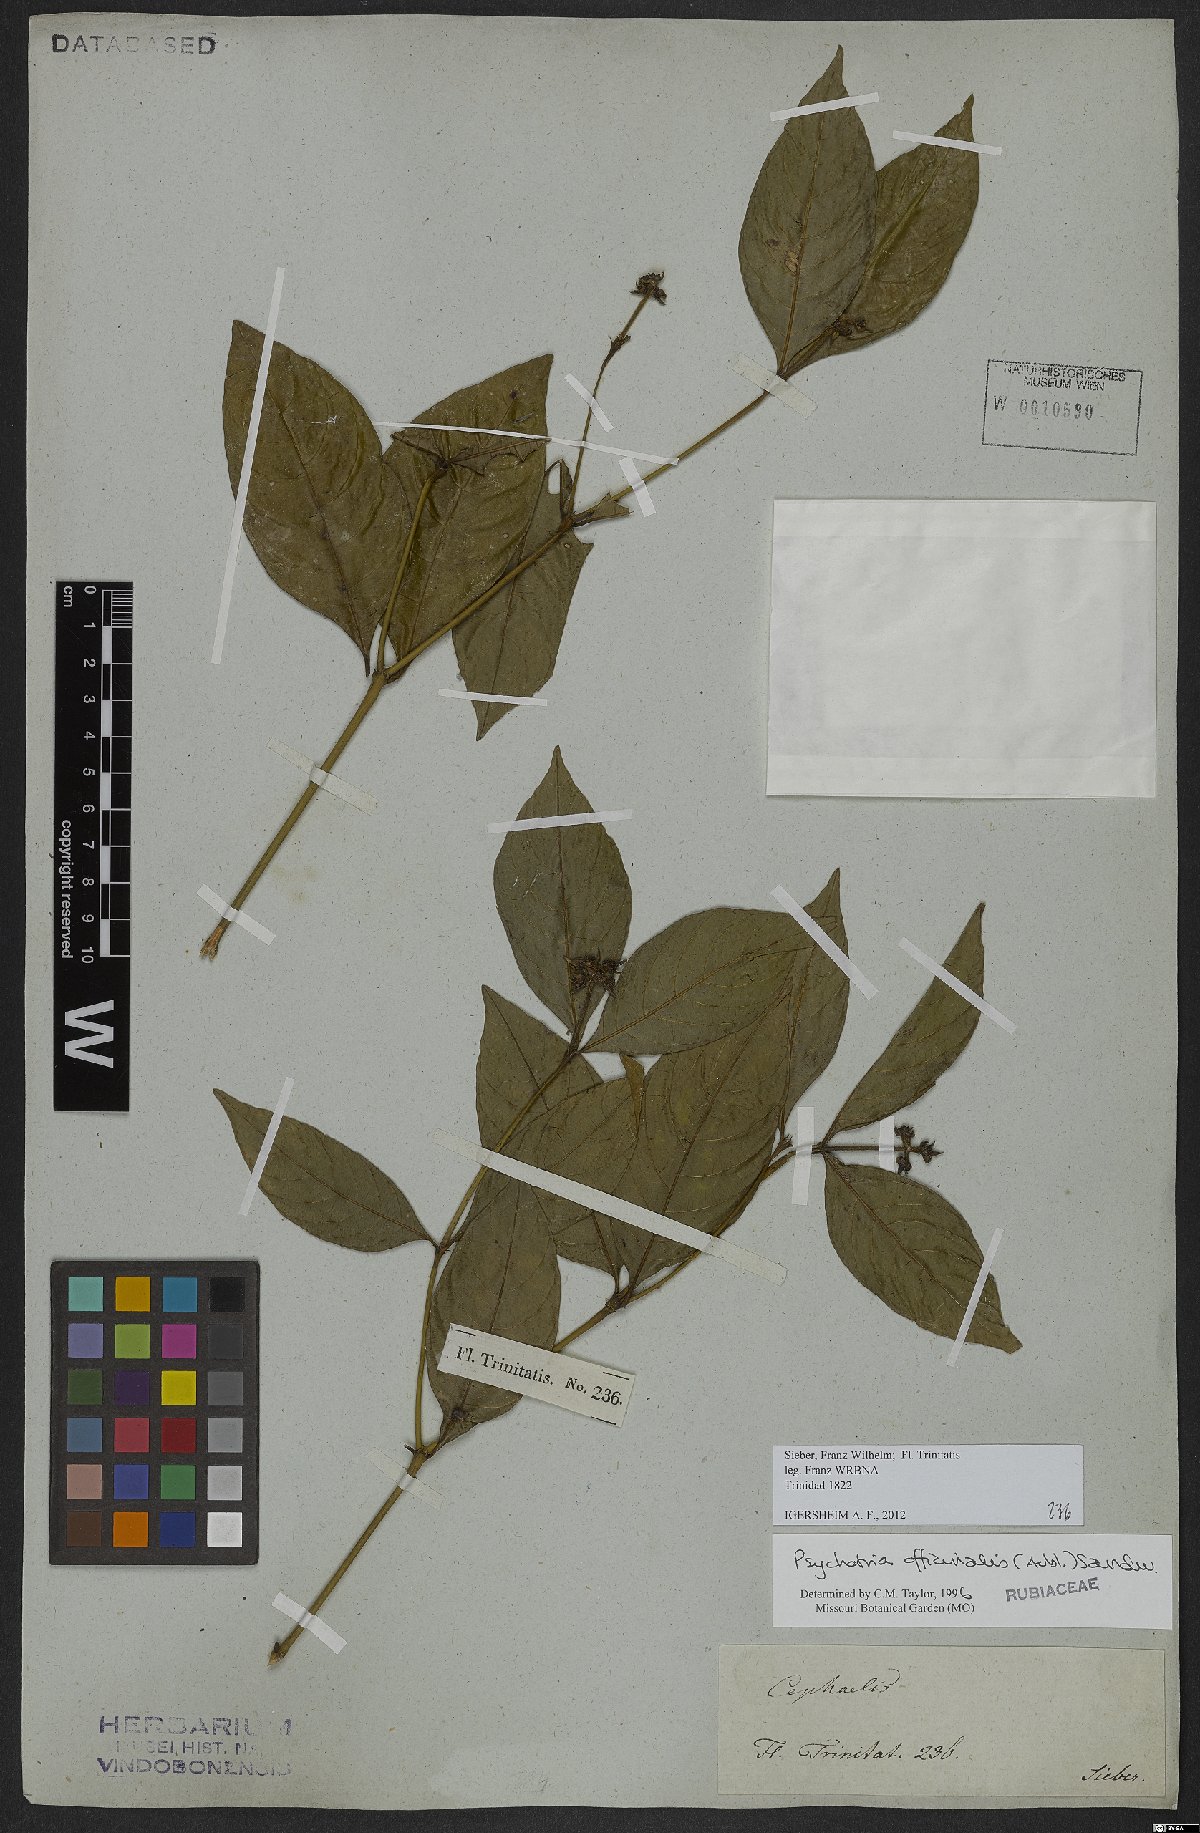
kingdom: Plantae
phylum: Tracheophyta
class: Magnoliopsida
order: Gentianales
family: Rubiaceae
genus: Palicourea
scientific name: Palicourea tenerior
